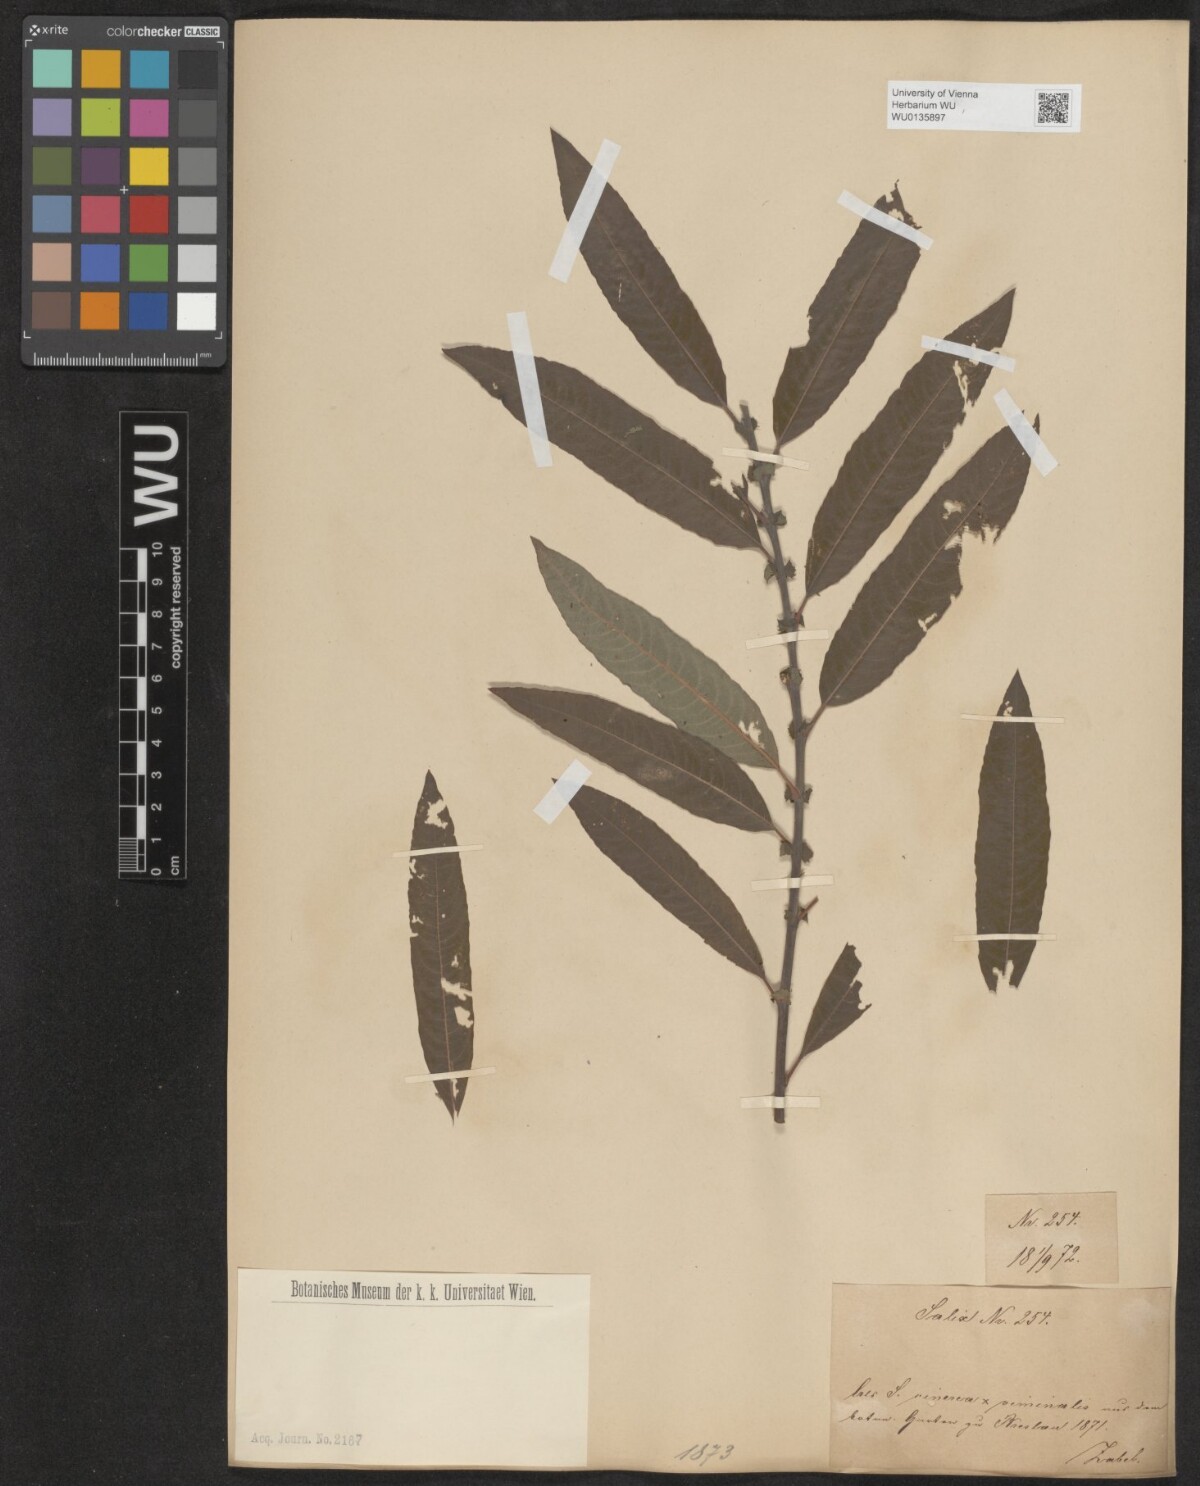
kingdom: Plantae
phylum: Tracheophyta
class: Magnoliopsida
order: Malpighiales
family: Salicaceae
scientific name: Salicaceae
